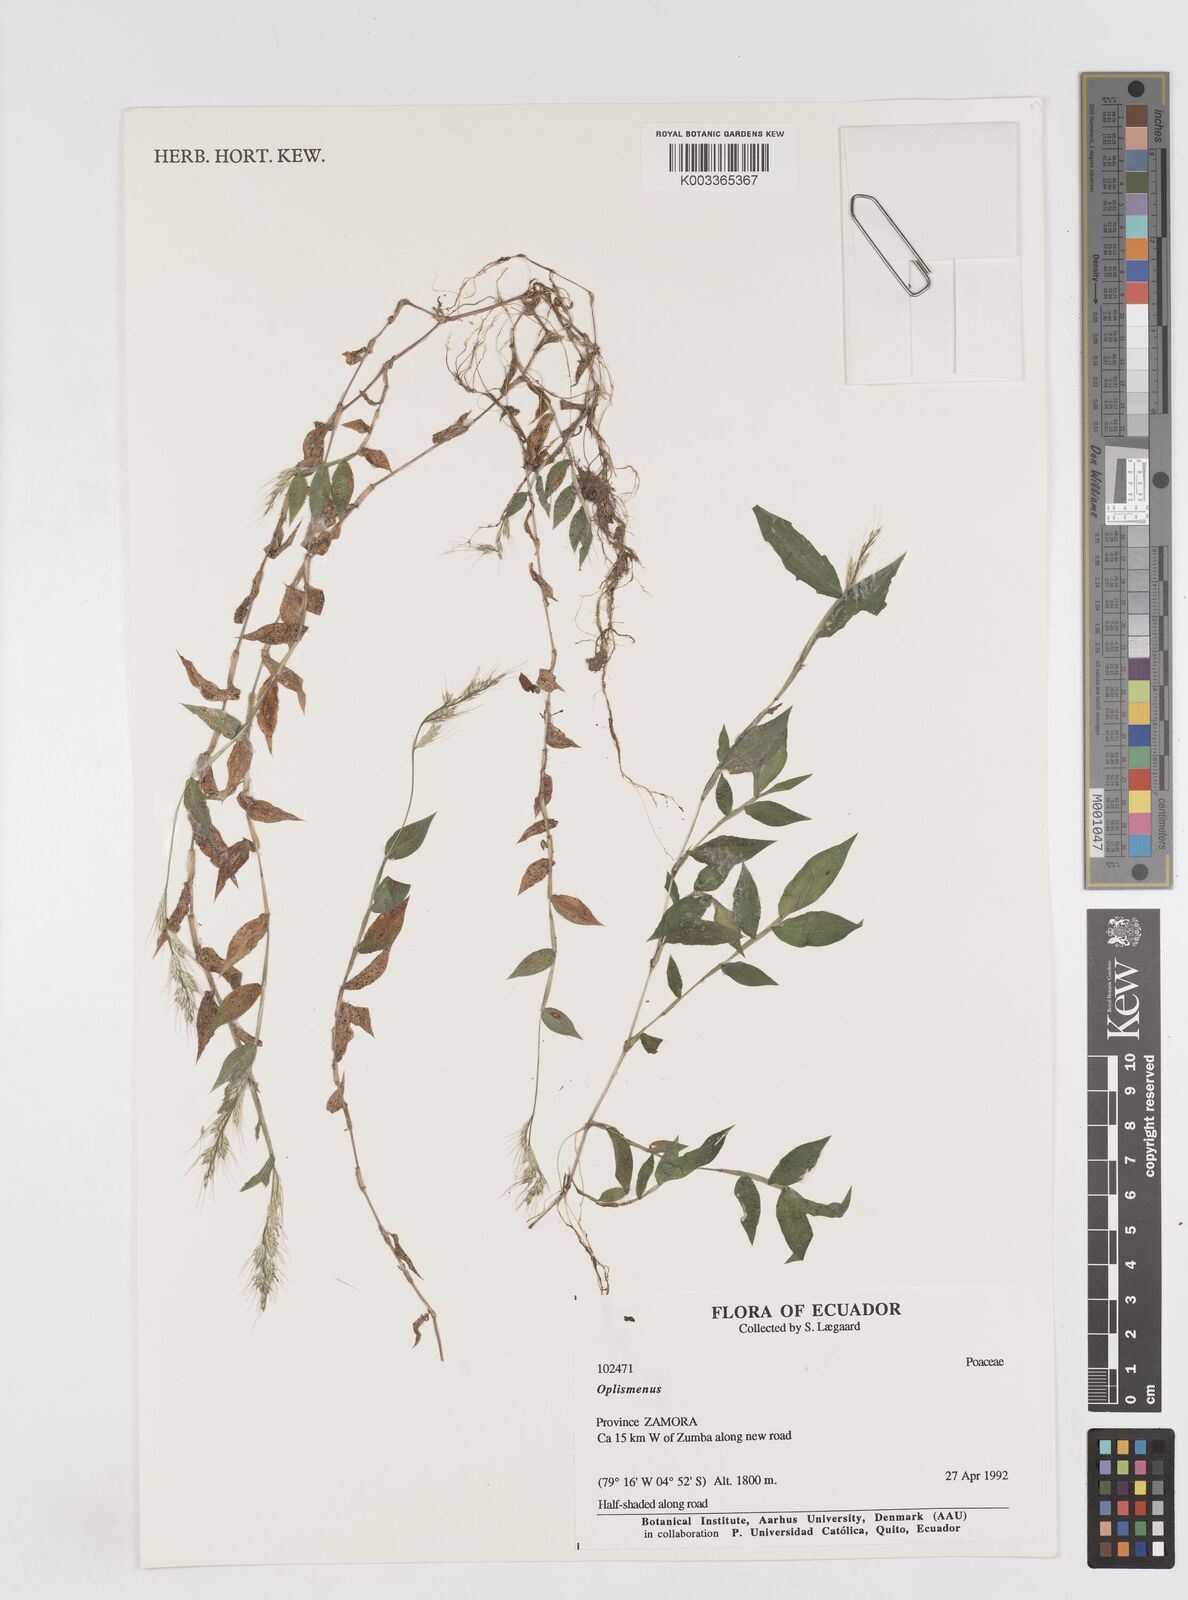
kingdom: Plantae
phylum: Tracheophyta
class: Liliopsida
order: Poales
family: Poaceae
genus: Oplismenus
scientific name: Oplismenus burmanni
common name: Burmann's basketgrass
